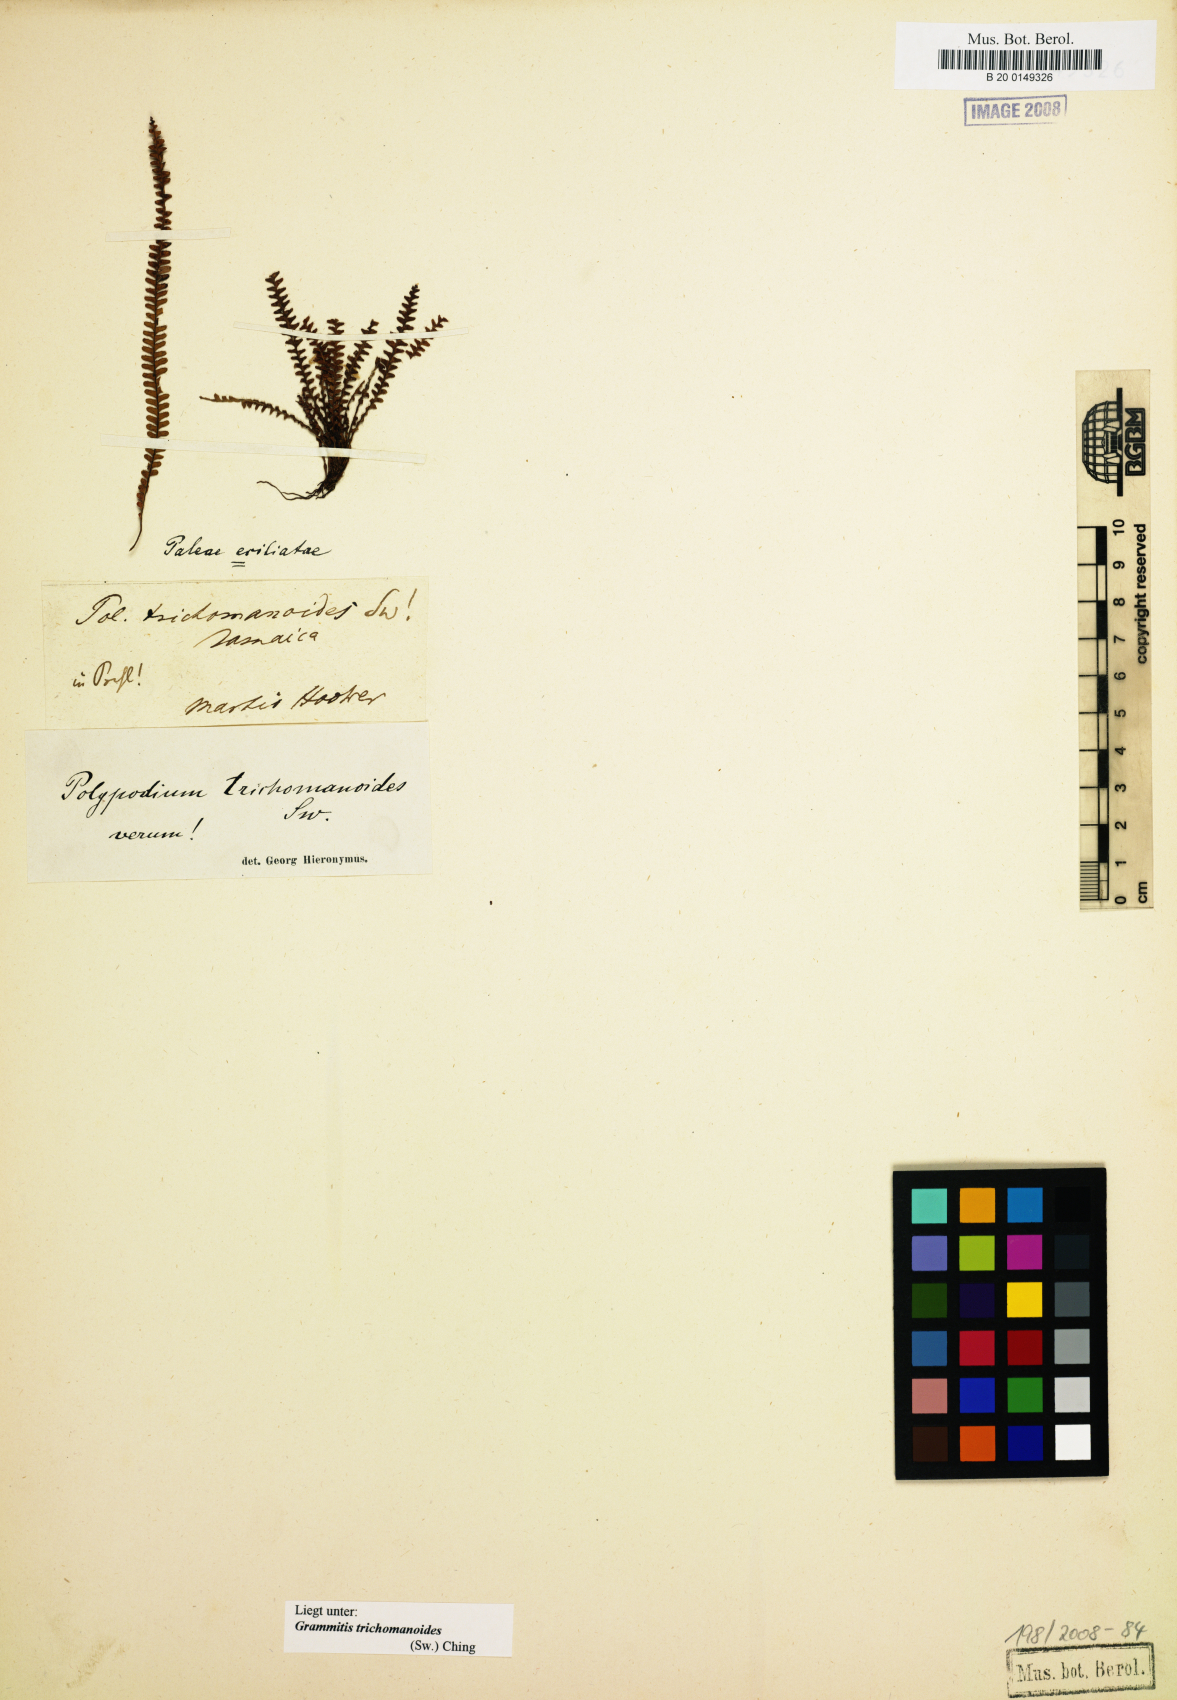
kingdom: Plantae
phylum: Tracheophyta
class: Polypodiopsida
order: Polypodiales
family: Polypodiaceae
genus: Moranopteris
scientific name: Moranopteris taenifolia
